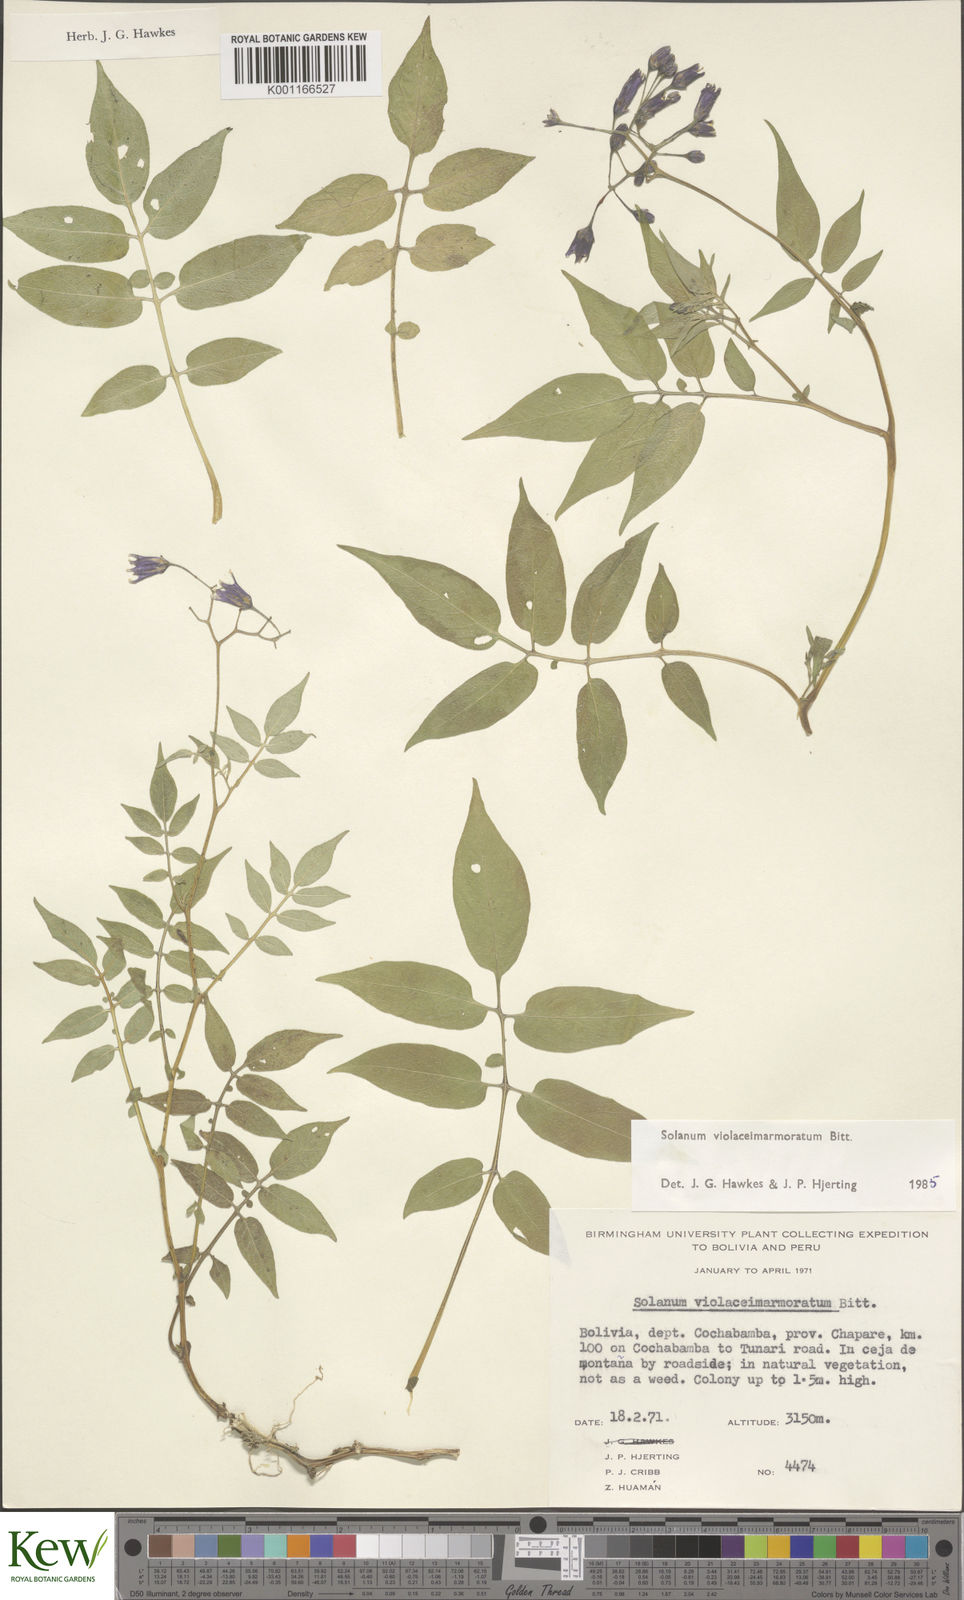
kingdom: Plantae
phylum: Tracheophyta
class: Magnoliopsida
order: Solanales
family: Solanaceae
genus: Solanum
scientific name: Solanum violaceimarmoratum
